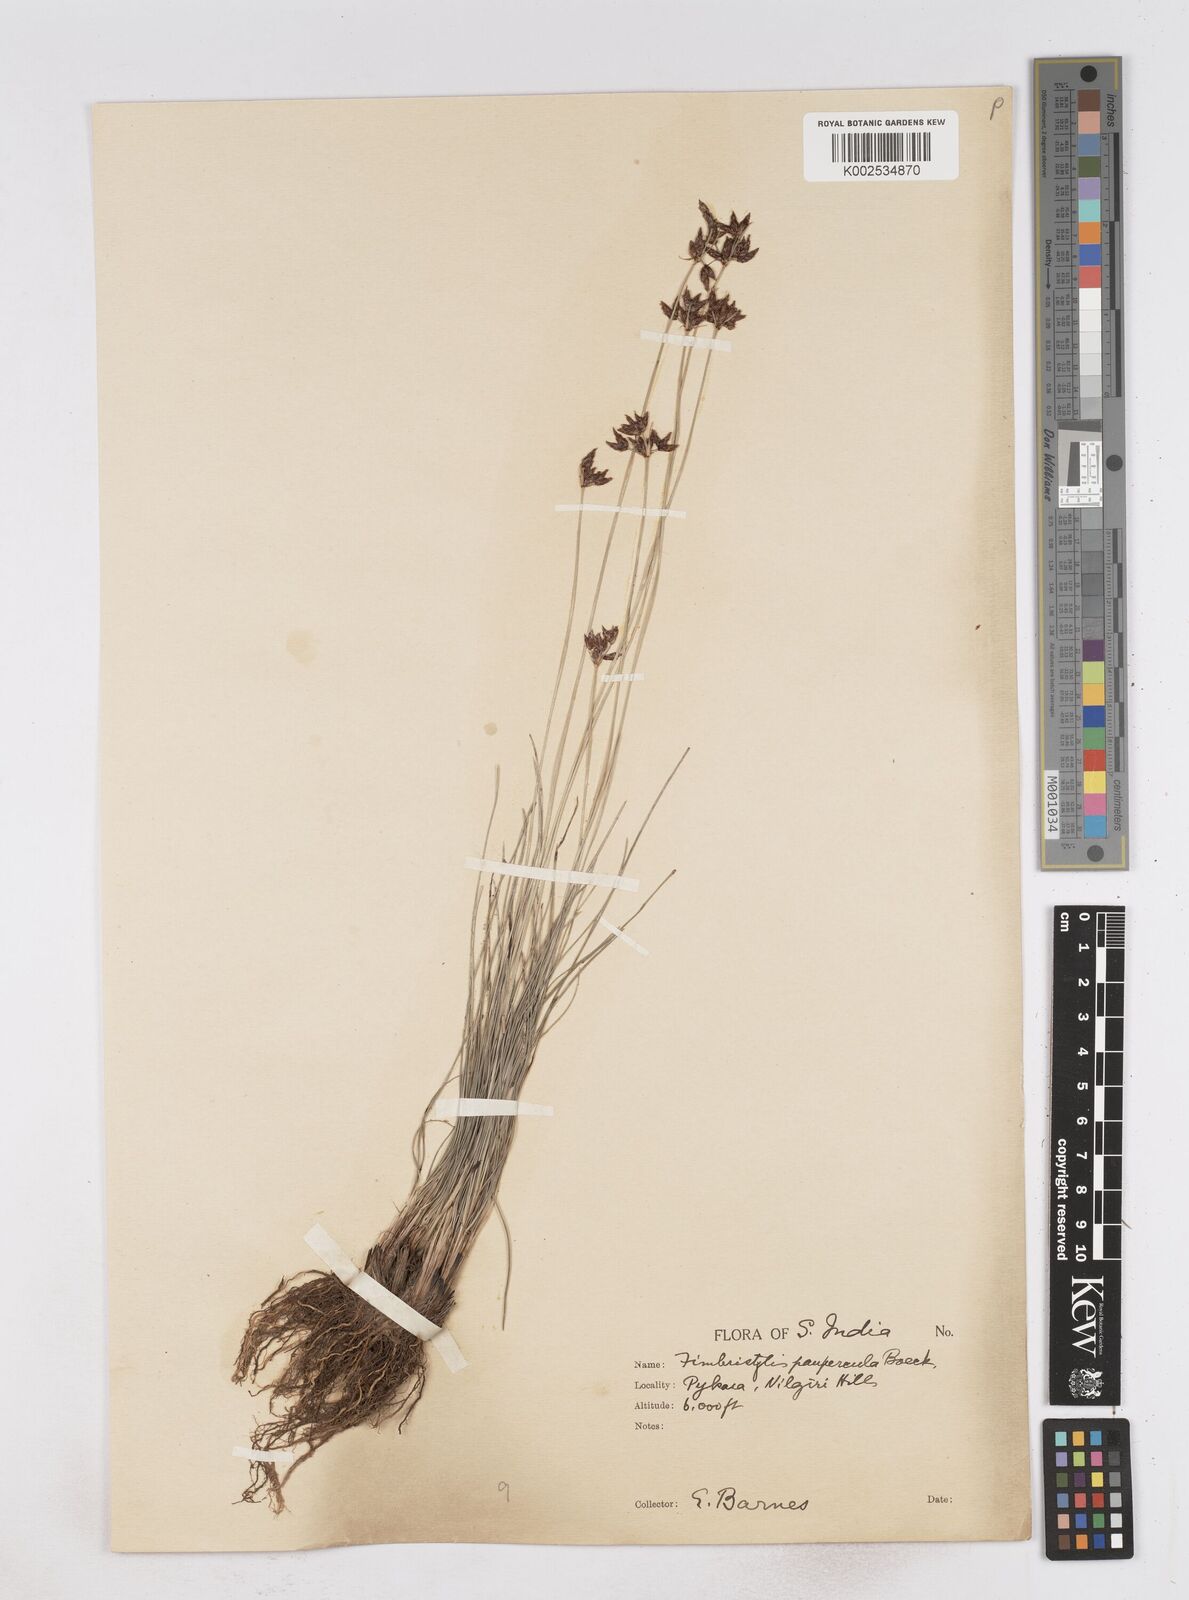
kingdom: Plantae
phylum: Tracheophyta
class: Liliopsida
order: Poales
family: Cyperaceae
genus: Fimbristylis
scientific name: Fimbristylis paupercula
